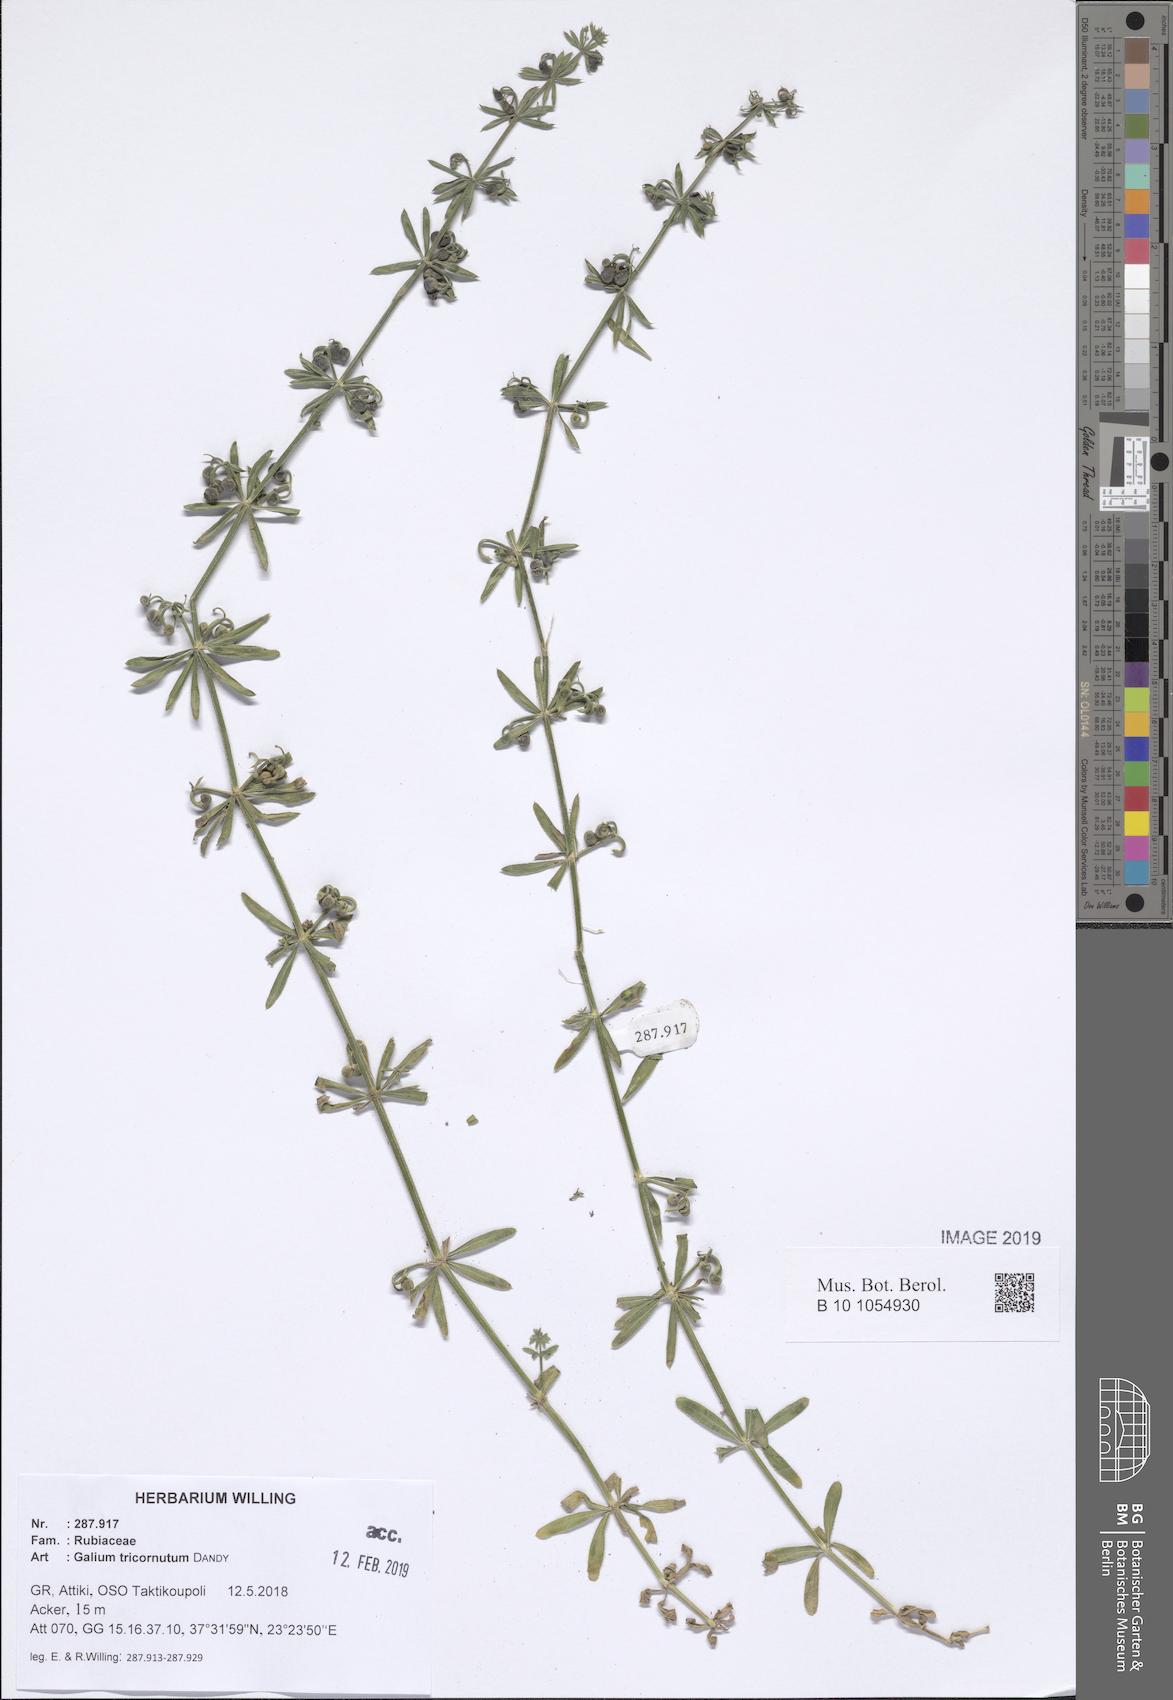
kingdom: Plantae
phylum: Tracheophyta
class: Magnoliopsida
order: Gentianales
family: Rubiaceae
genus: Galium
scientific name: Galium tricornutum
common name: Corn cleavers
